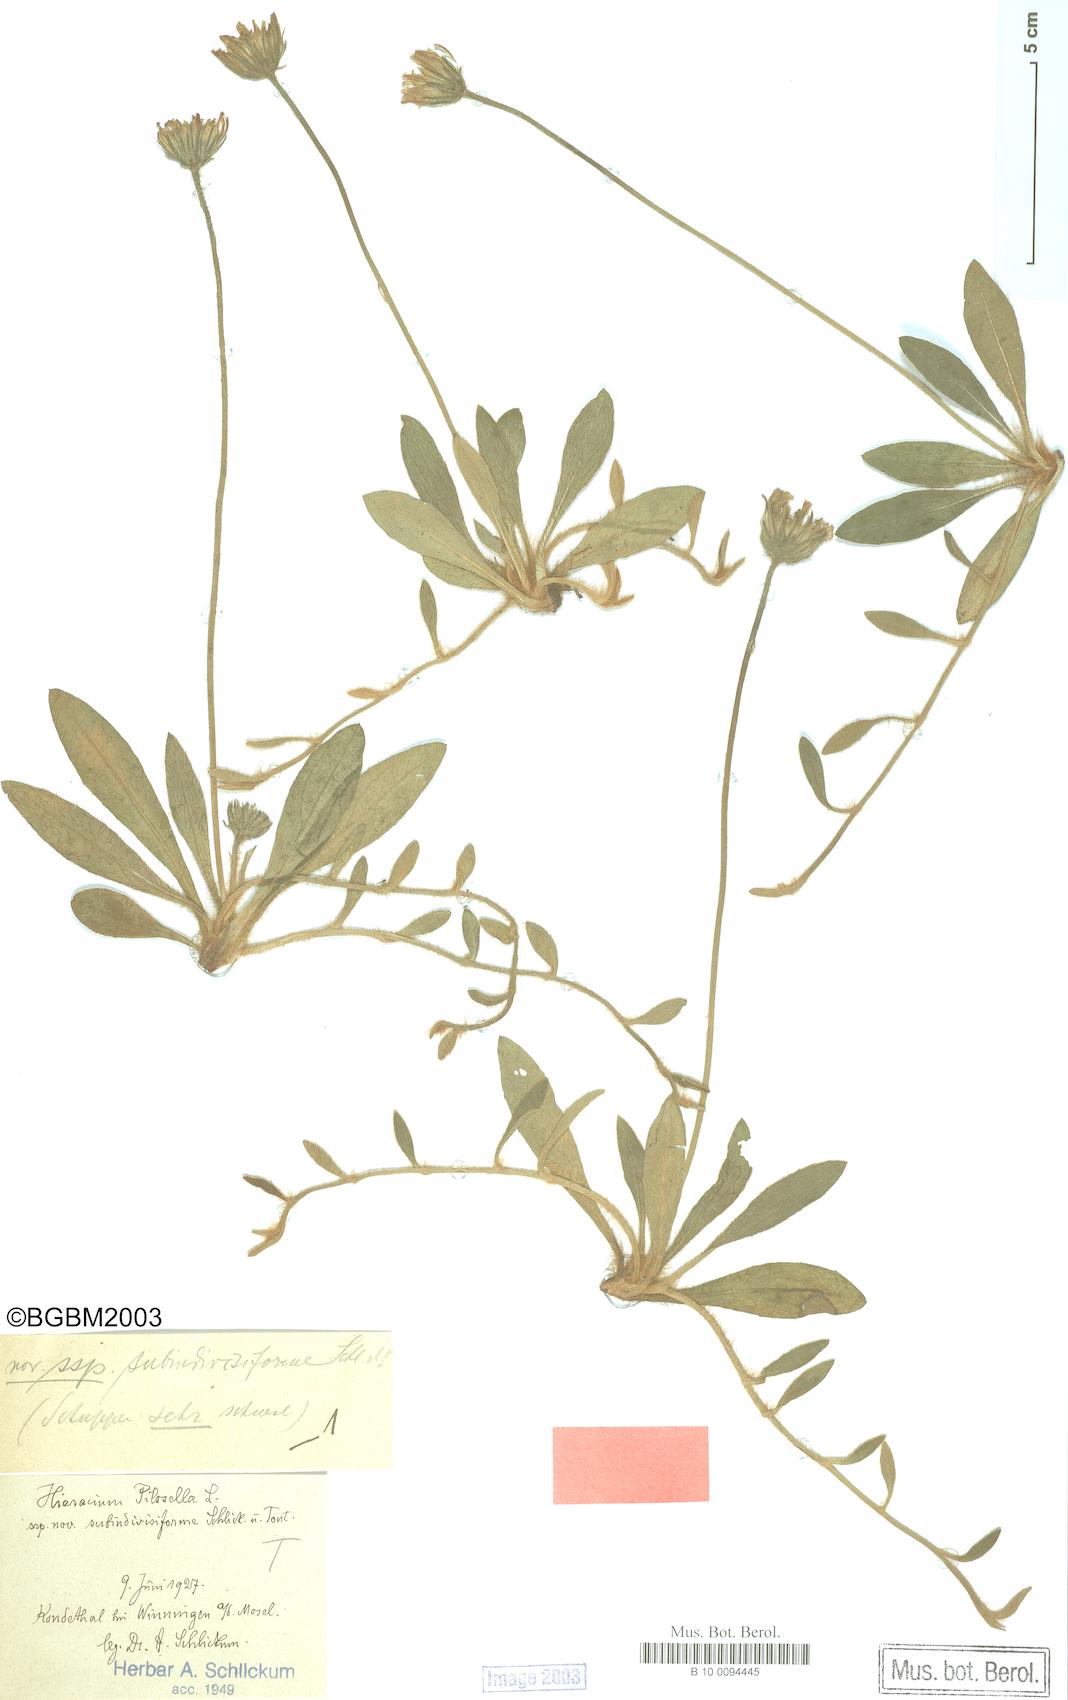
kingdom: Plantae
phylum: Tracheophyta
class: Magnoliopsida
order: Asterales
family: Asteraceae
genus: Pilosella
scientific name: Pilosella officinarum
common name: Mouse-ear hawkweed
